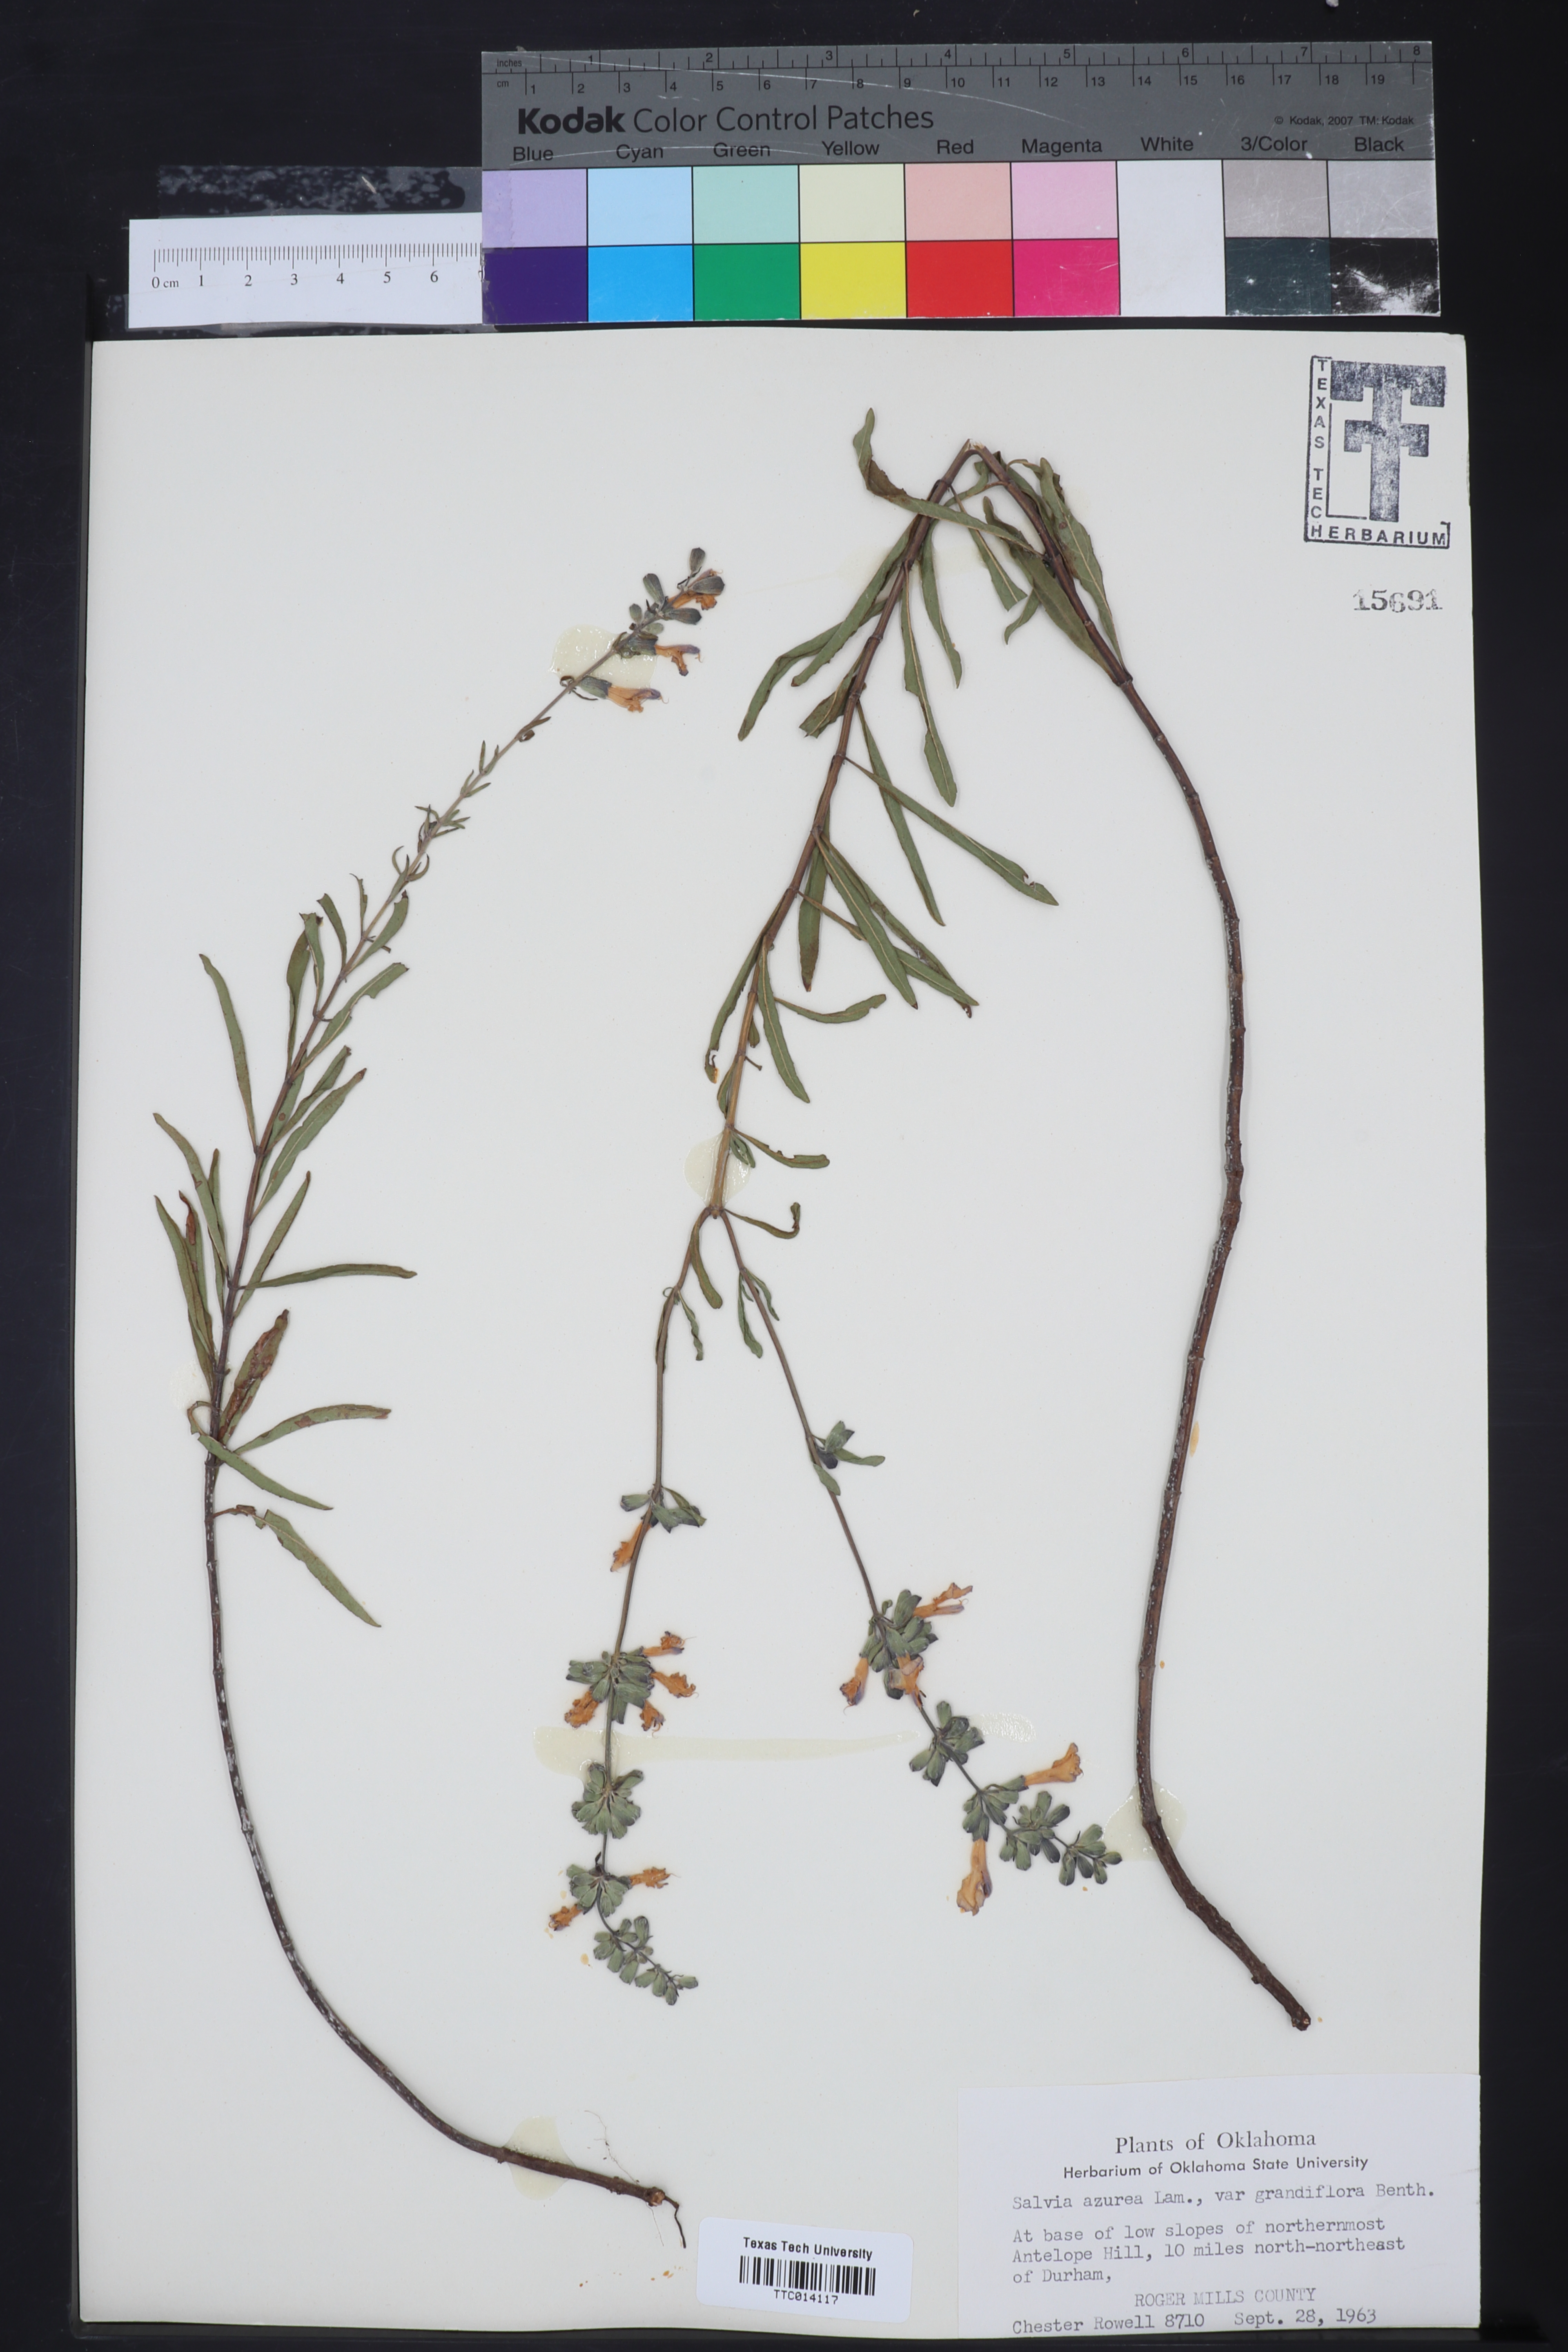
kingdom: Plantae
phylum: Tracheophyta
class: Magnoliopsida
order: Lamiales
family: Lamiaceae
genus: Salvia
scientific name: Salvia azurea
